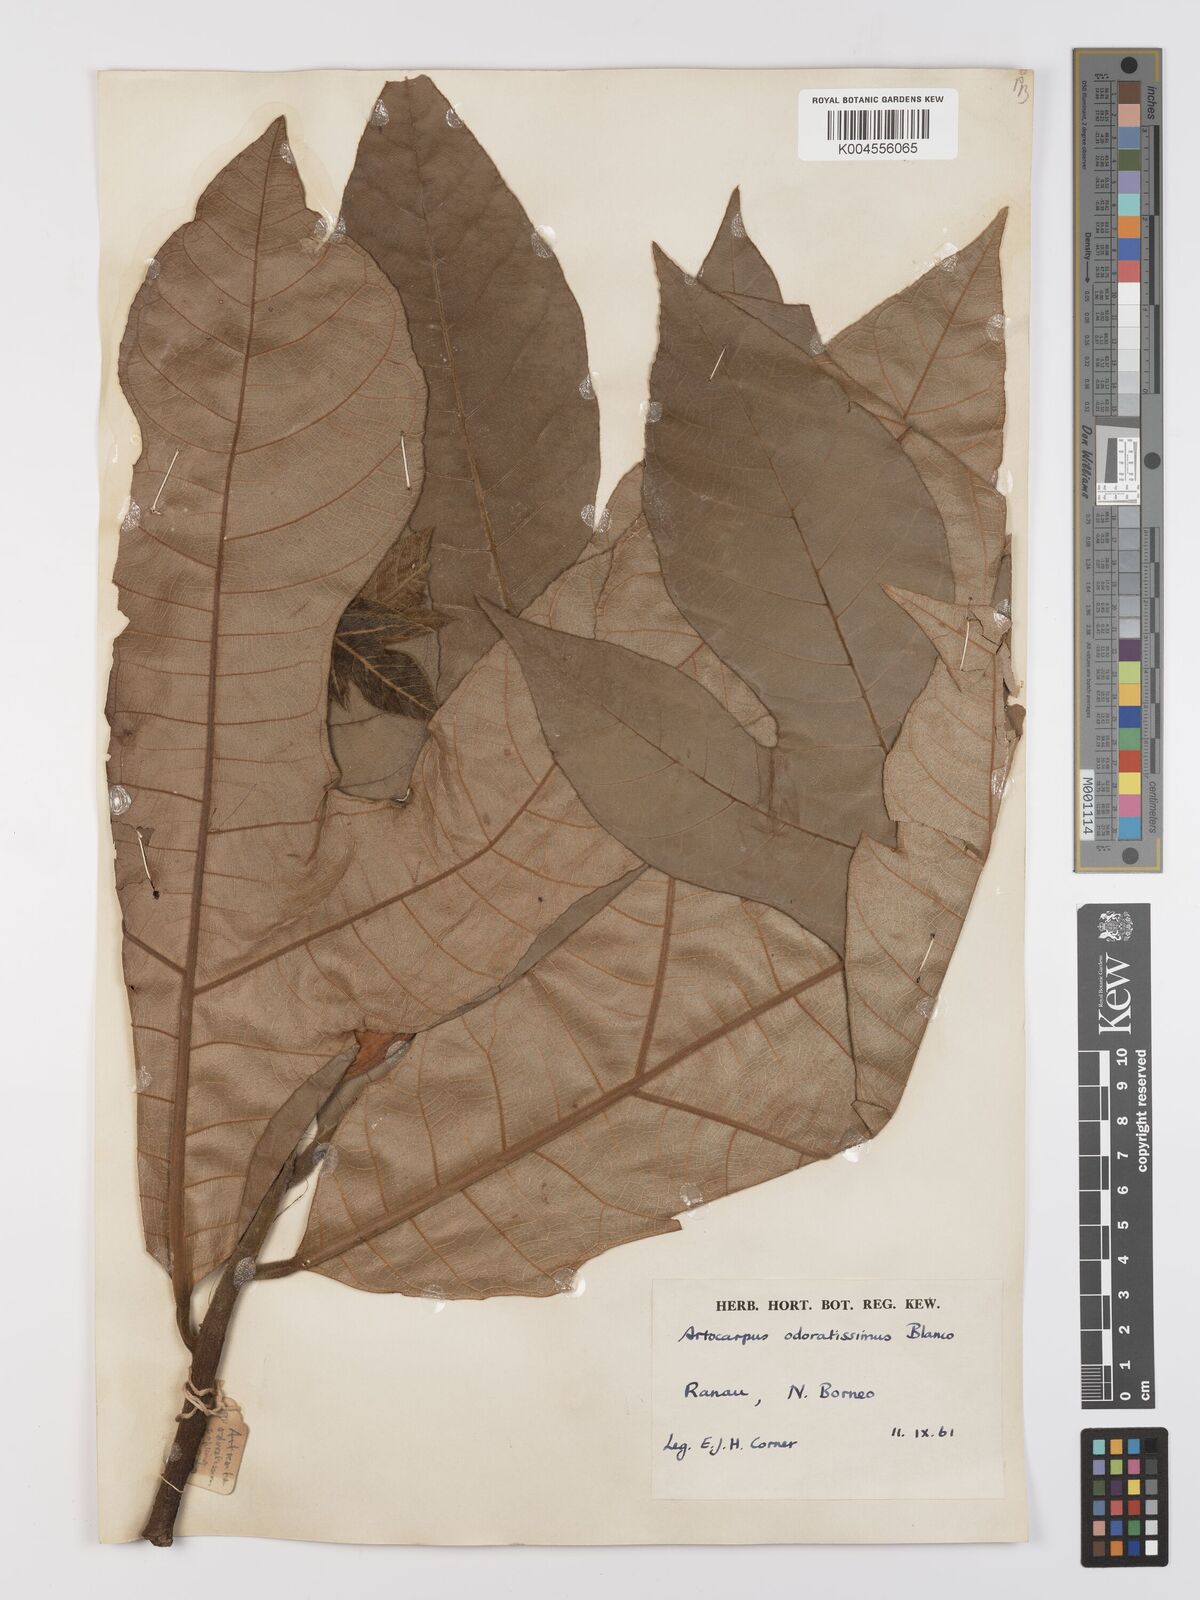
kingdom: Plantae
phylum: Tracheophyta
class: Magnoliopsida
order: Rosales
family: Moraceae
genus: Artocarpus
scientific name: Artocarpus odoratissimus
